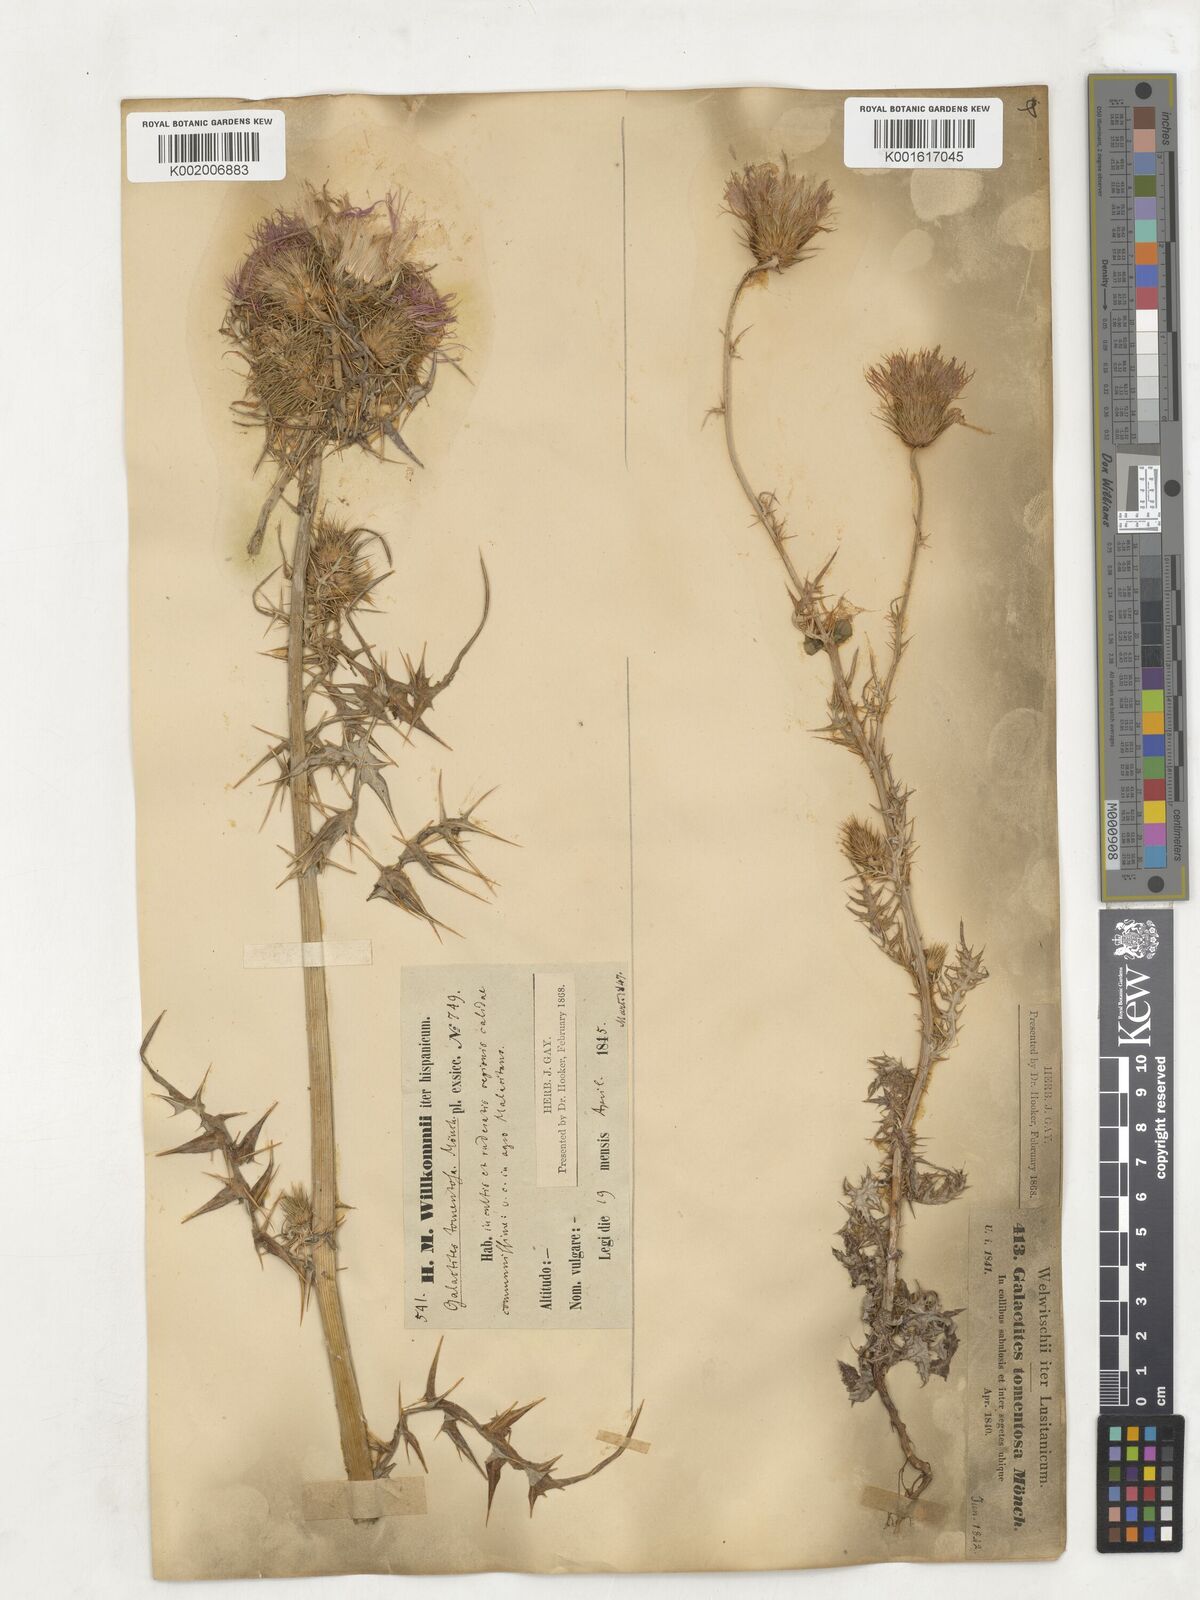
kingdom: Plantae
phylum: Tracheophyta
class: Magnoliopsida
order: Asterales
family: Asteraceae
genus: Galactites
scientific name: Galactites
